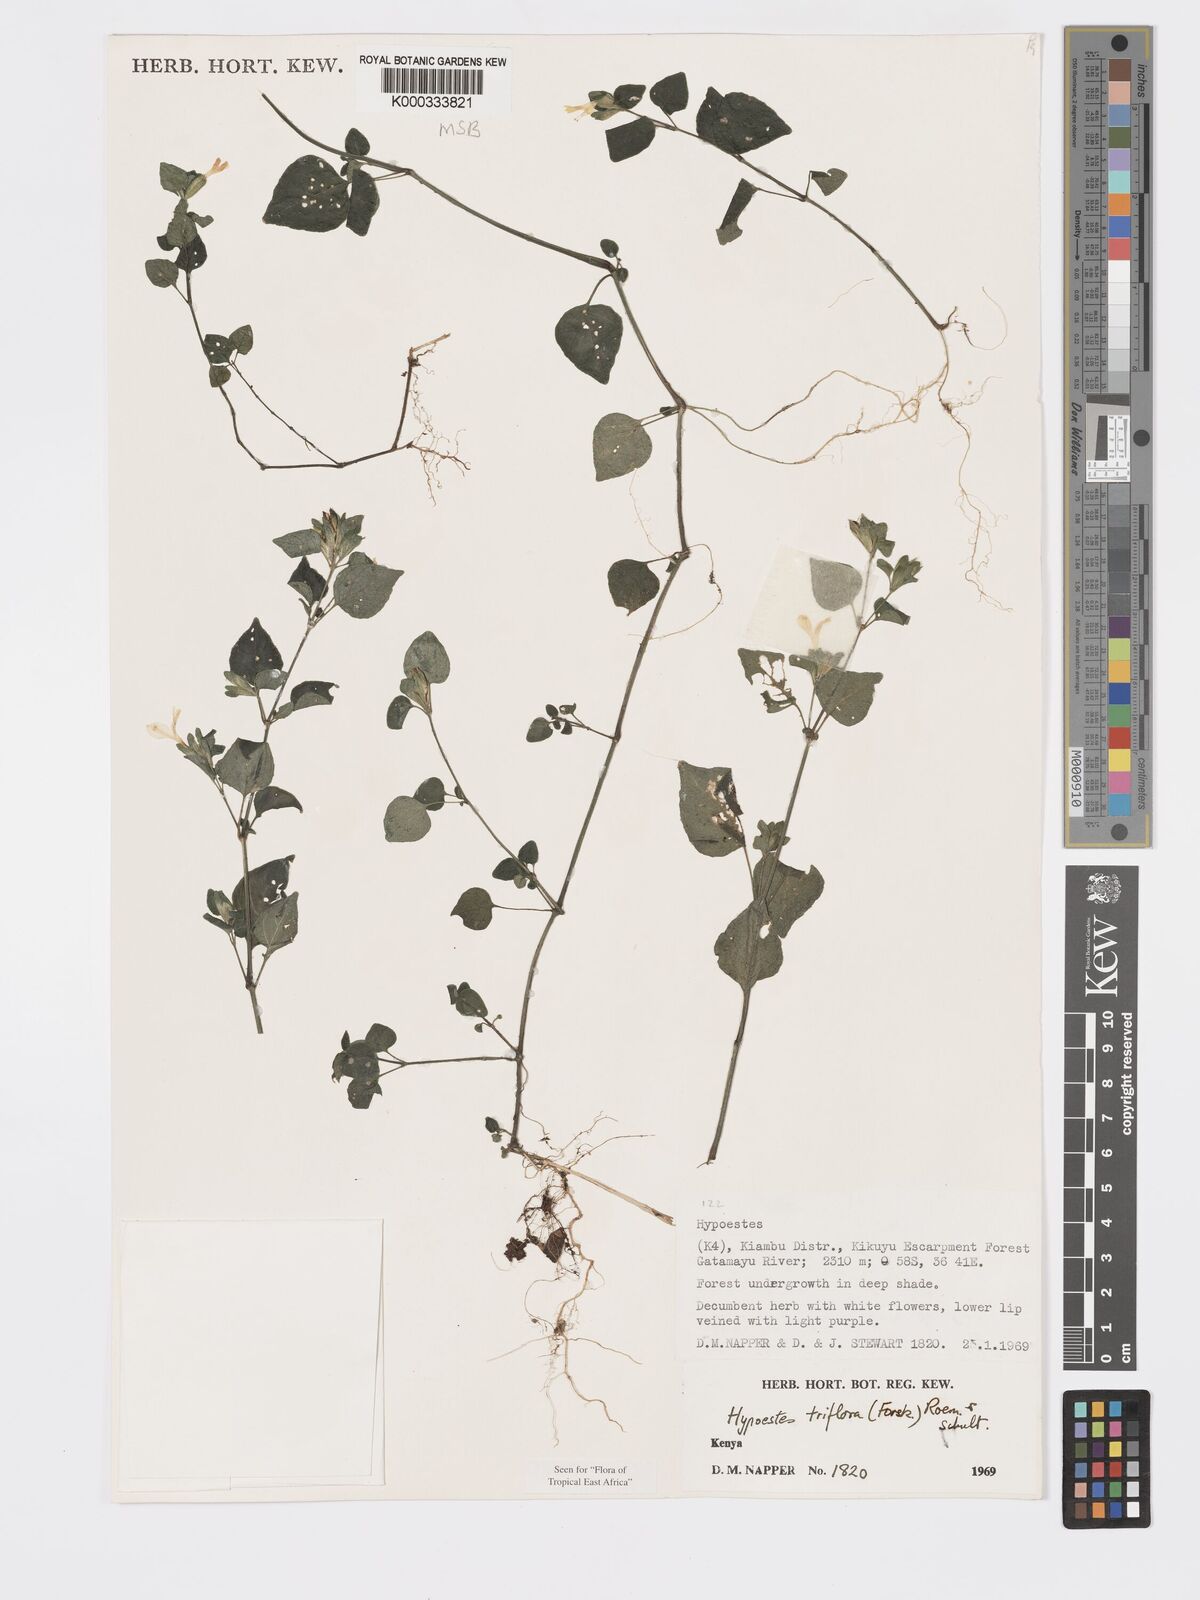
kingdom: Plantae
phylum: Tracheophyta
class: Magnoliopsida
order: Lamiales
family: Acanthaceae
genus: Hypoestes
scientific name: Hypoestes triflora
